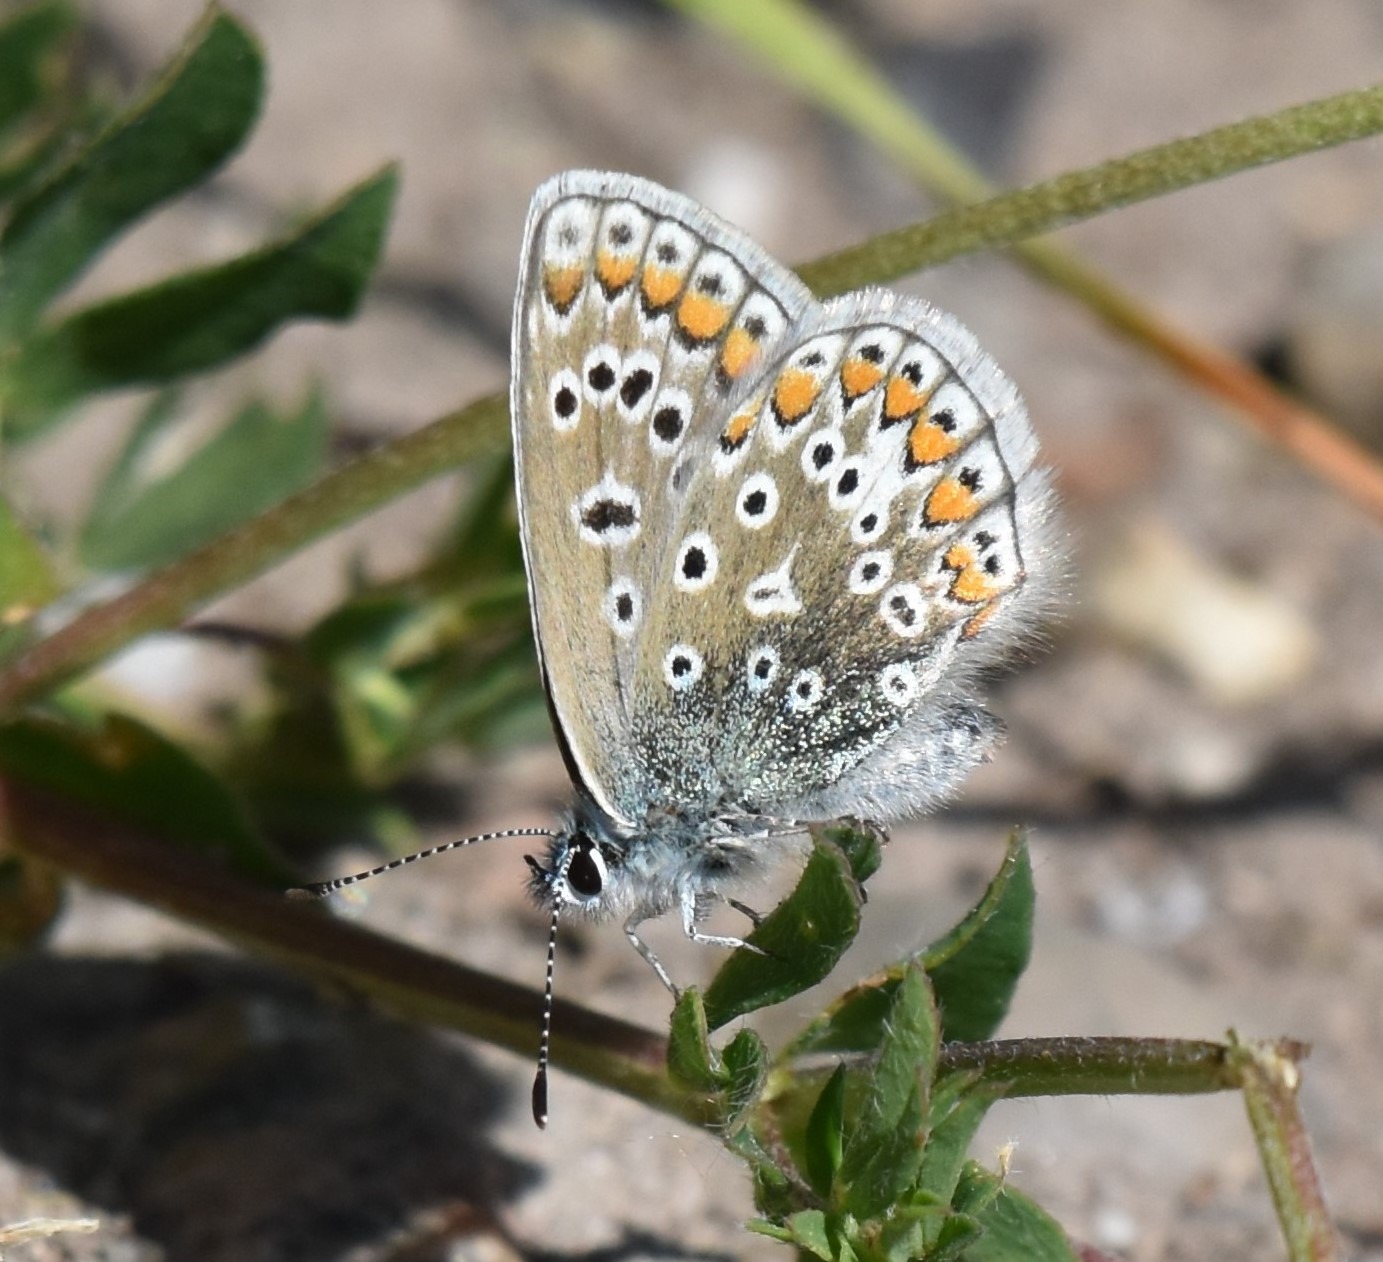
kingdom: Animalia
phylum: Arthropoda
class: Insecta
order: Lepidoptera
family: Lycaenidae
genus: Polyommatus
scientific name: Polyommatus icarus
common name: Almindelig blåfugl
